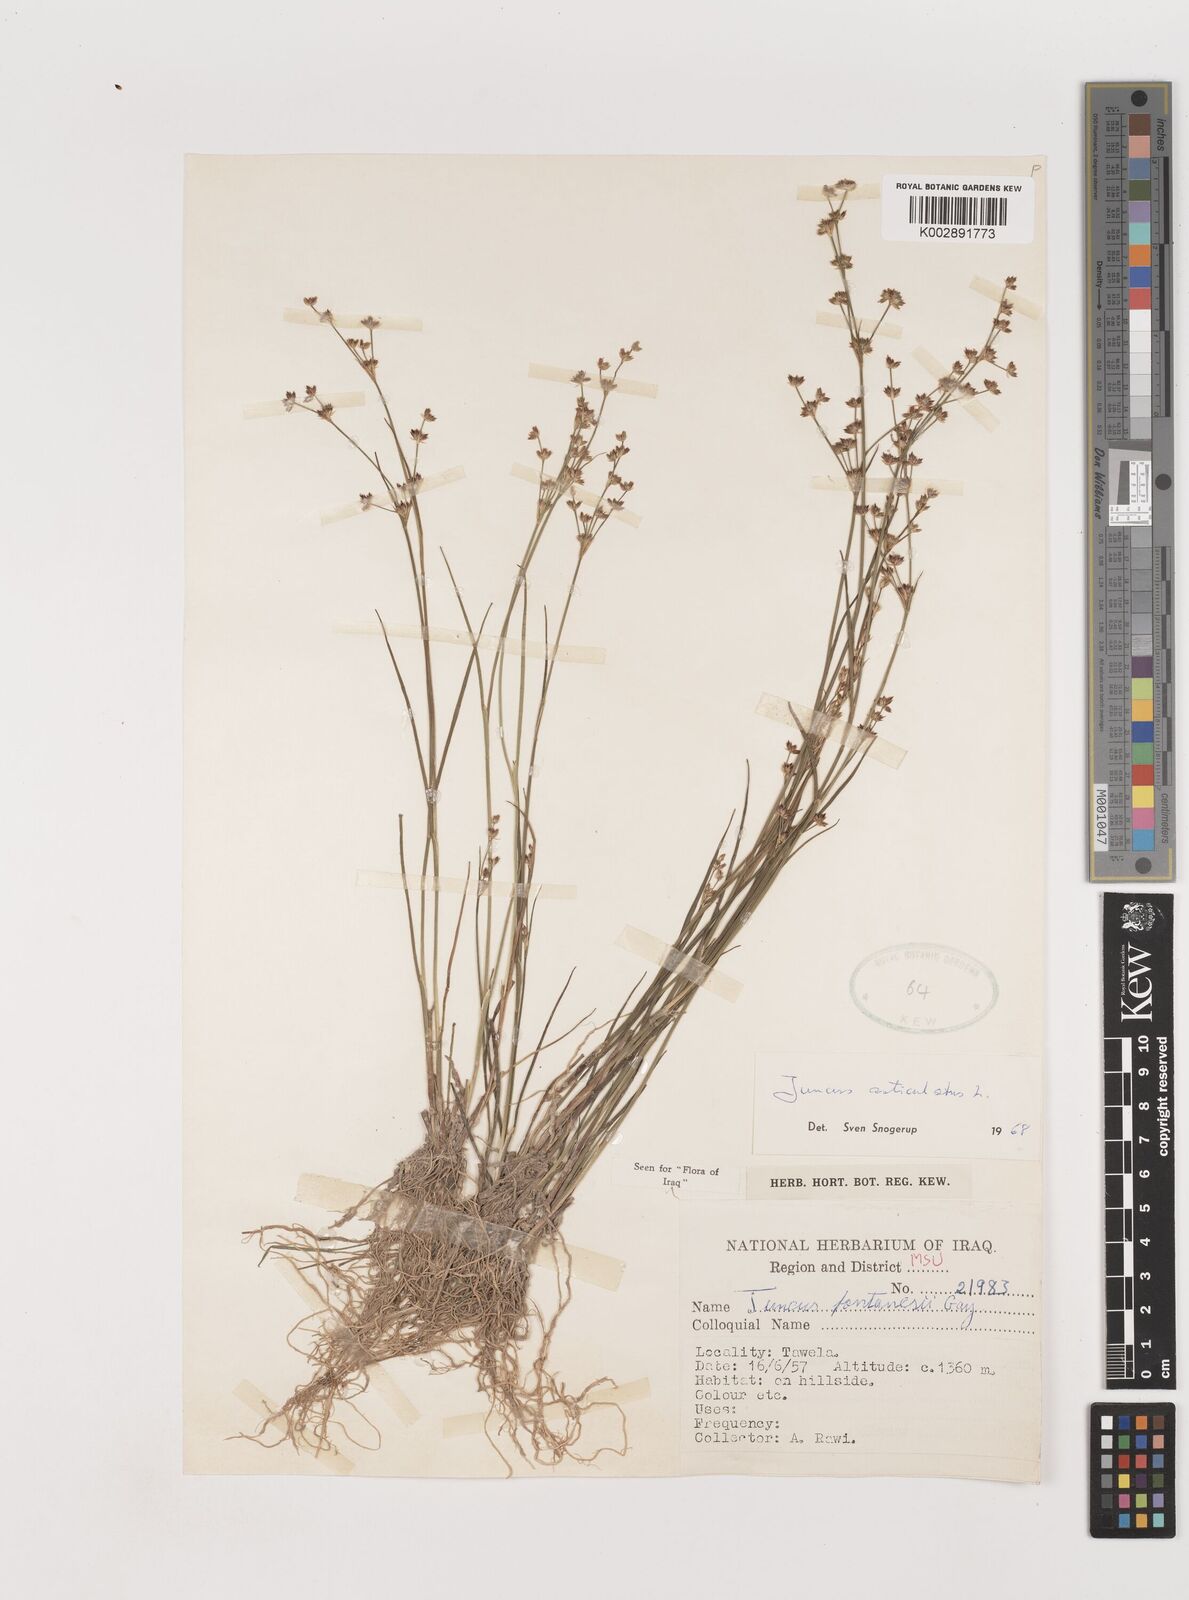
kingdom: Plantae
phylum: Tracheophyta
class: Liliopsida
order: Poales
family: Juncaceae
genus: Juncus
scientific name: Juncus articulatus
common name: Jointed rush
